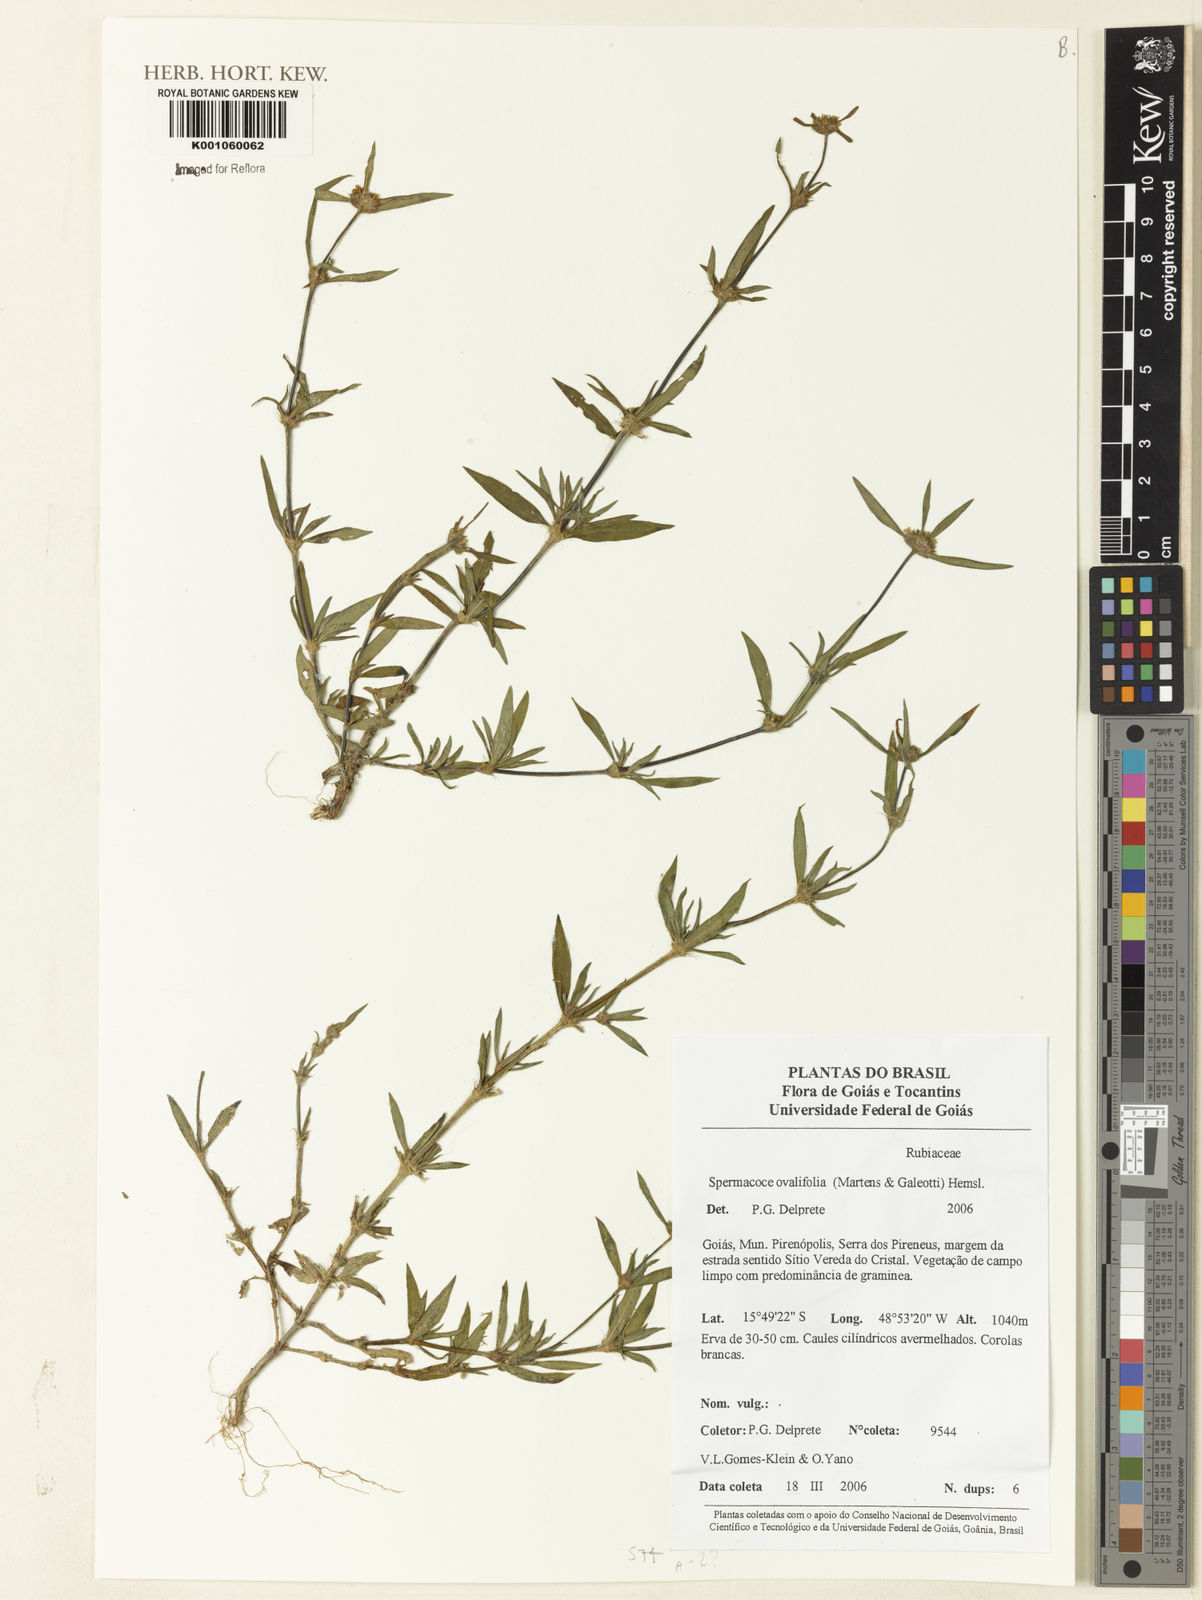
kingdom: Plantae
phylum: Tracheophyta
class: Magnoliopsida
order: Gentianales
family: Rubiaceae
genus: Spermacoce
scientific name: Spermacoce ovalifolia
